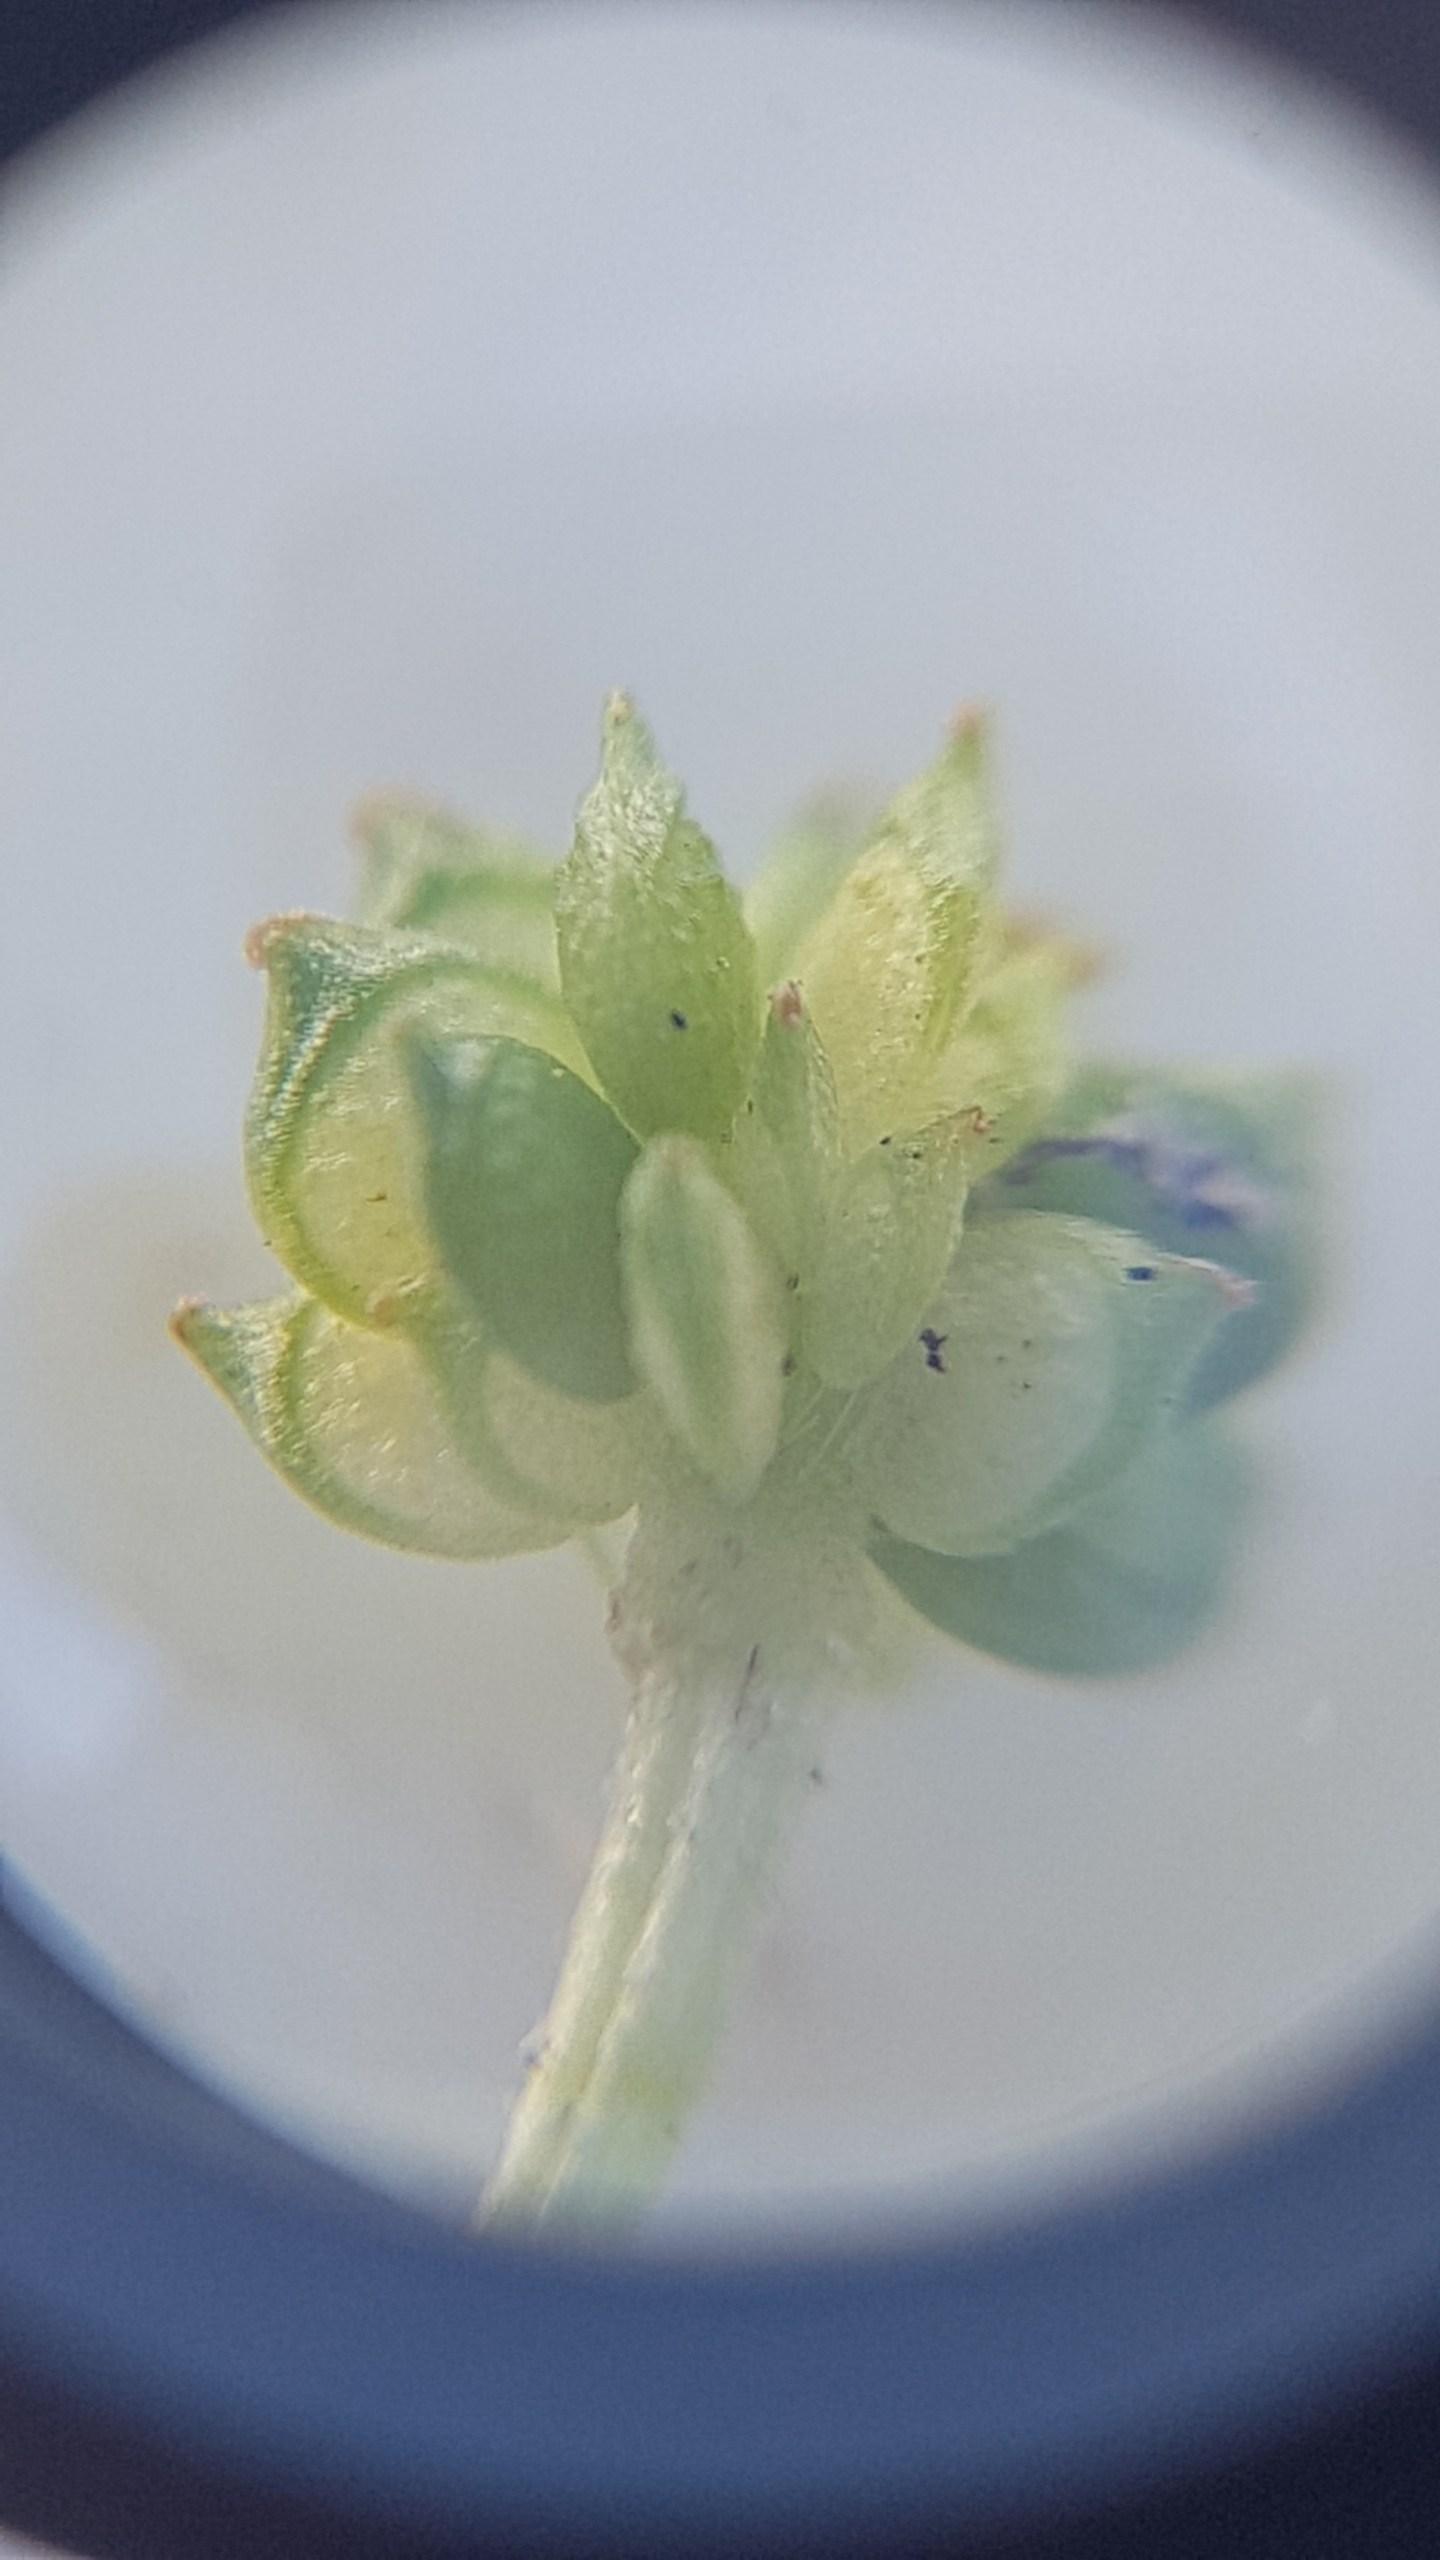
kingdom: Plantae
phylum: Tracheophyta
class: Magnoliopsida
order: Ranunculales
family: Ranunculaceae
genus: Ranunculus
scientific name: Ranunculus sardous
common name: Stivhåret ranunkel
